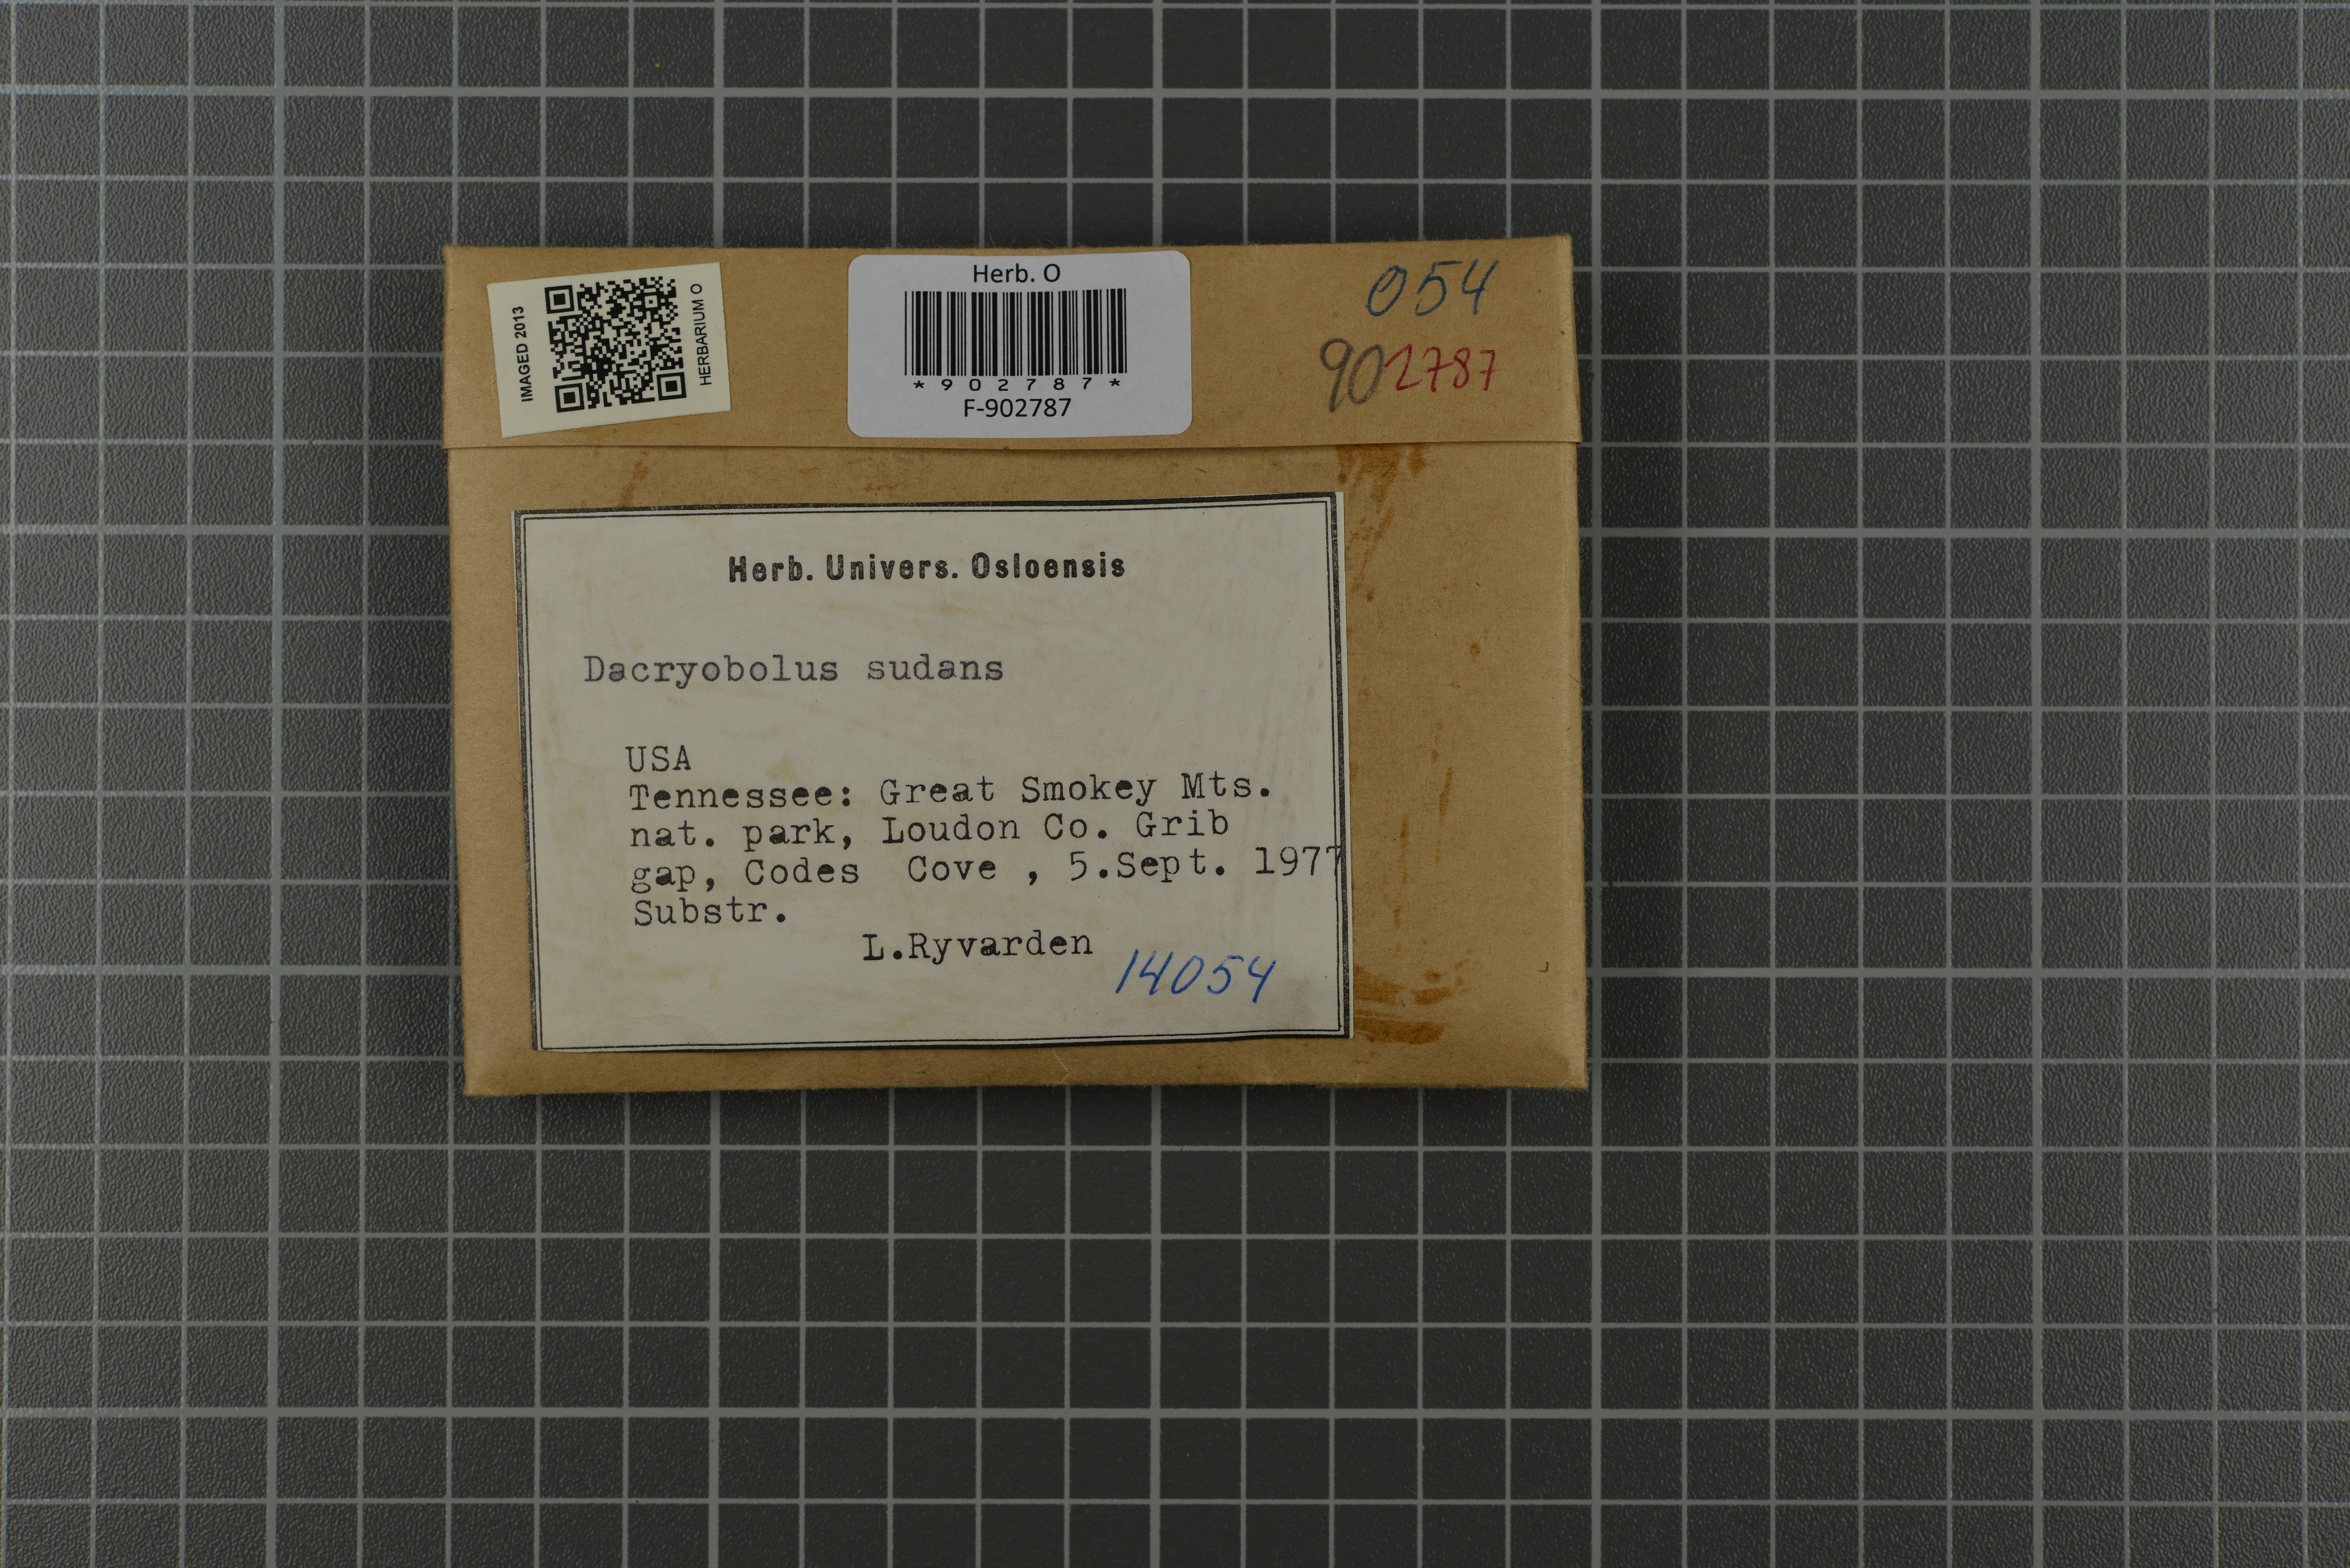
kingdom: Fungi
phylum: Basidiomycota
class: Agaricomycetes
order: Polyporales
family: Dacryobolaceae
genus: Dacryobolus
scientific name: Dacryobolus sudans
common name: Weeping toothcrust
